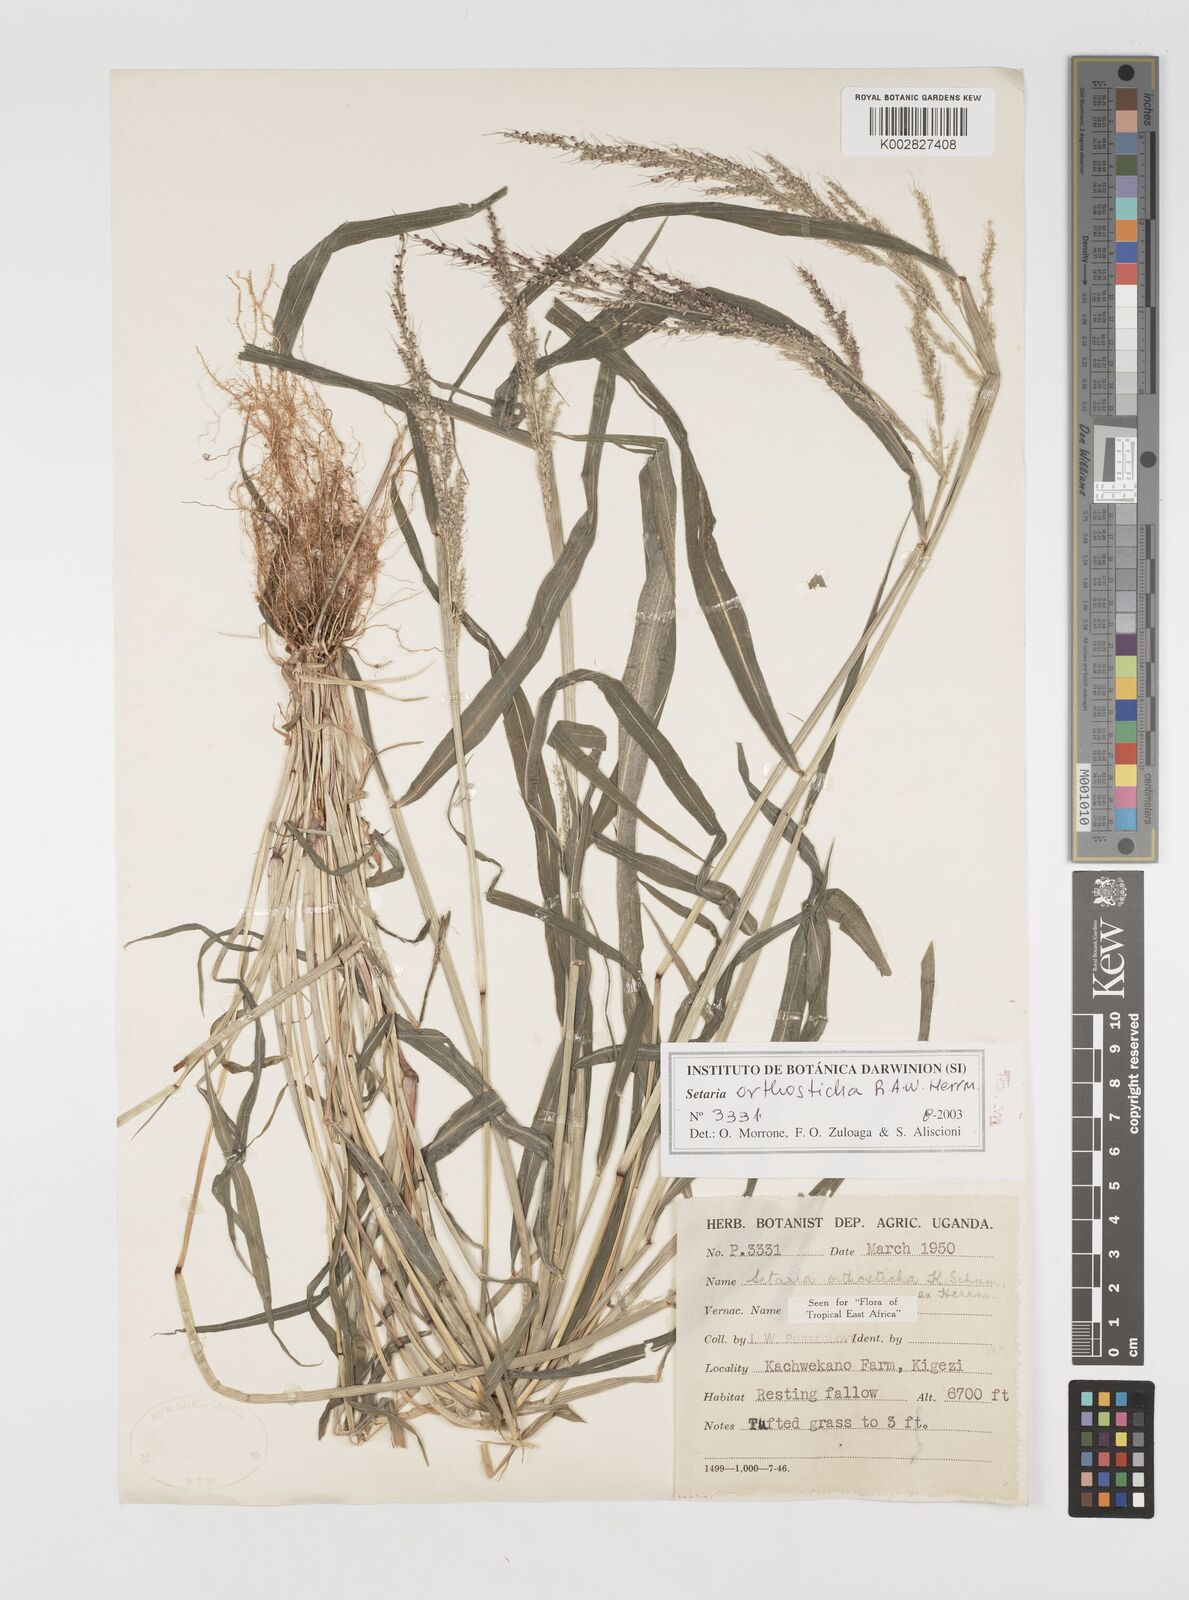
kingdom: Plantae
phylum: Tracheophyta
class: Liliopsida
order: Poales
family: Poaceae
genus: Setaria
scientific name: Setaria orthosticha
